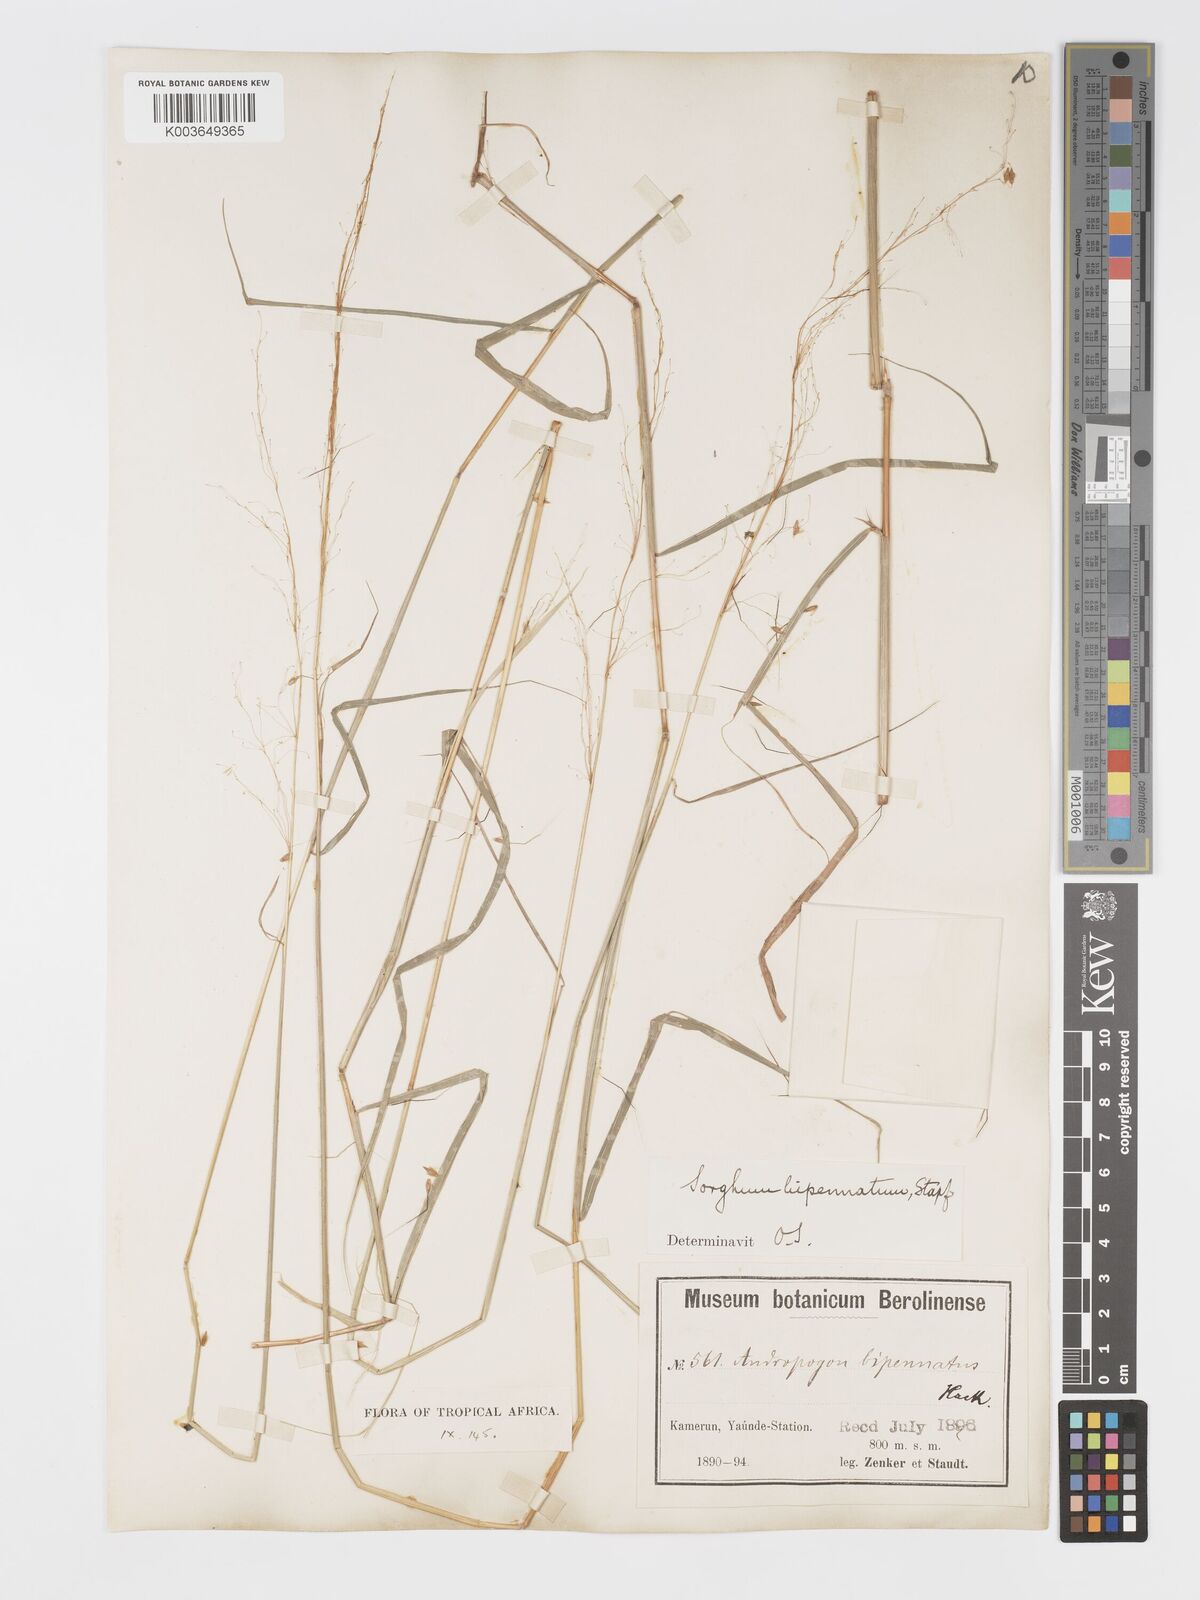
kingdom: Plantae
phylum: Tracheophyta
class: Liliopsida
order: Poales
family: Poaceae
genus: Sorghastrum
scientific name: Sorghastrum incompletum
